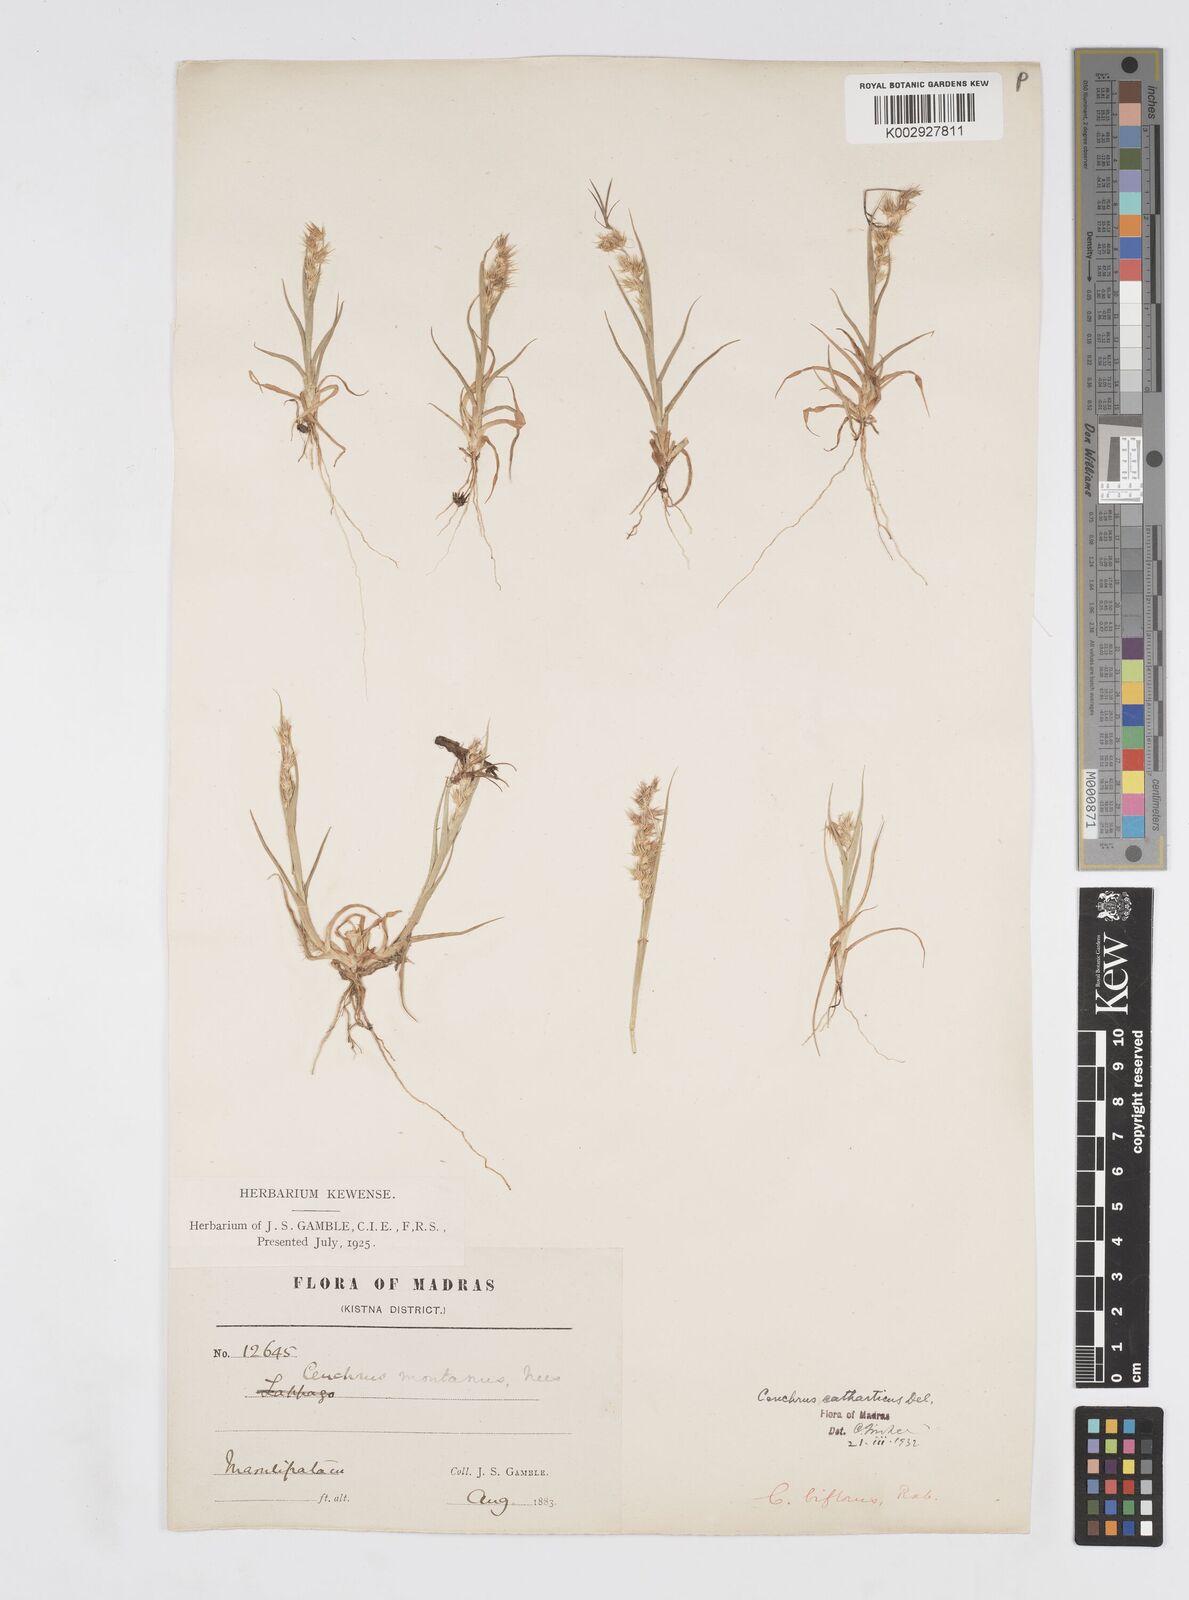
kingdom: Plantae
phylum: Tracheophyta
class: Liliopsida
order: Poales
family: Poaceae
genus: Cenchrus
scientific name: Cenchrus biflorus
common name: Indian sandbur
